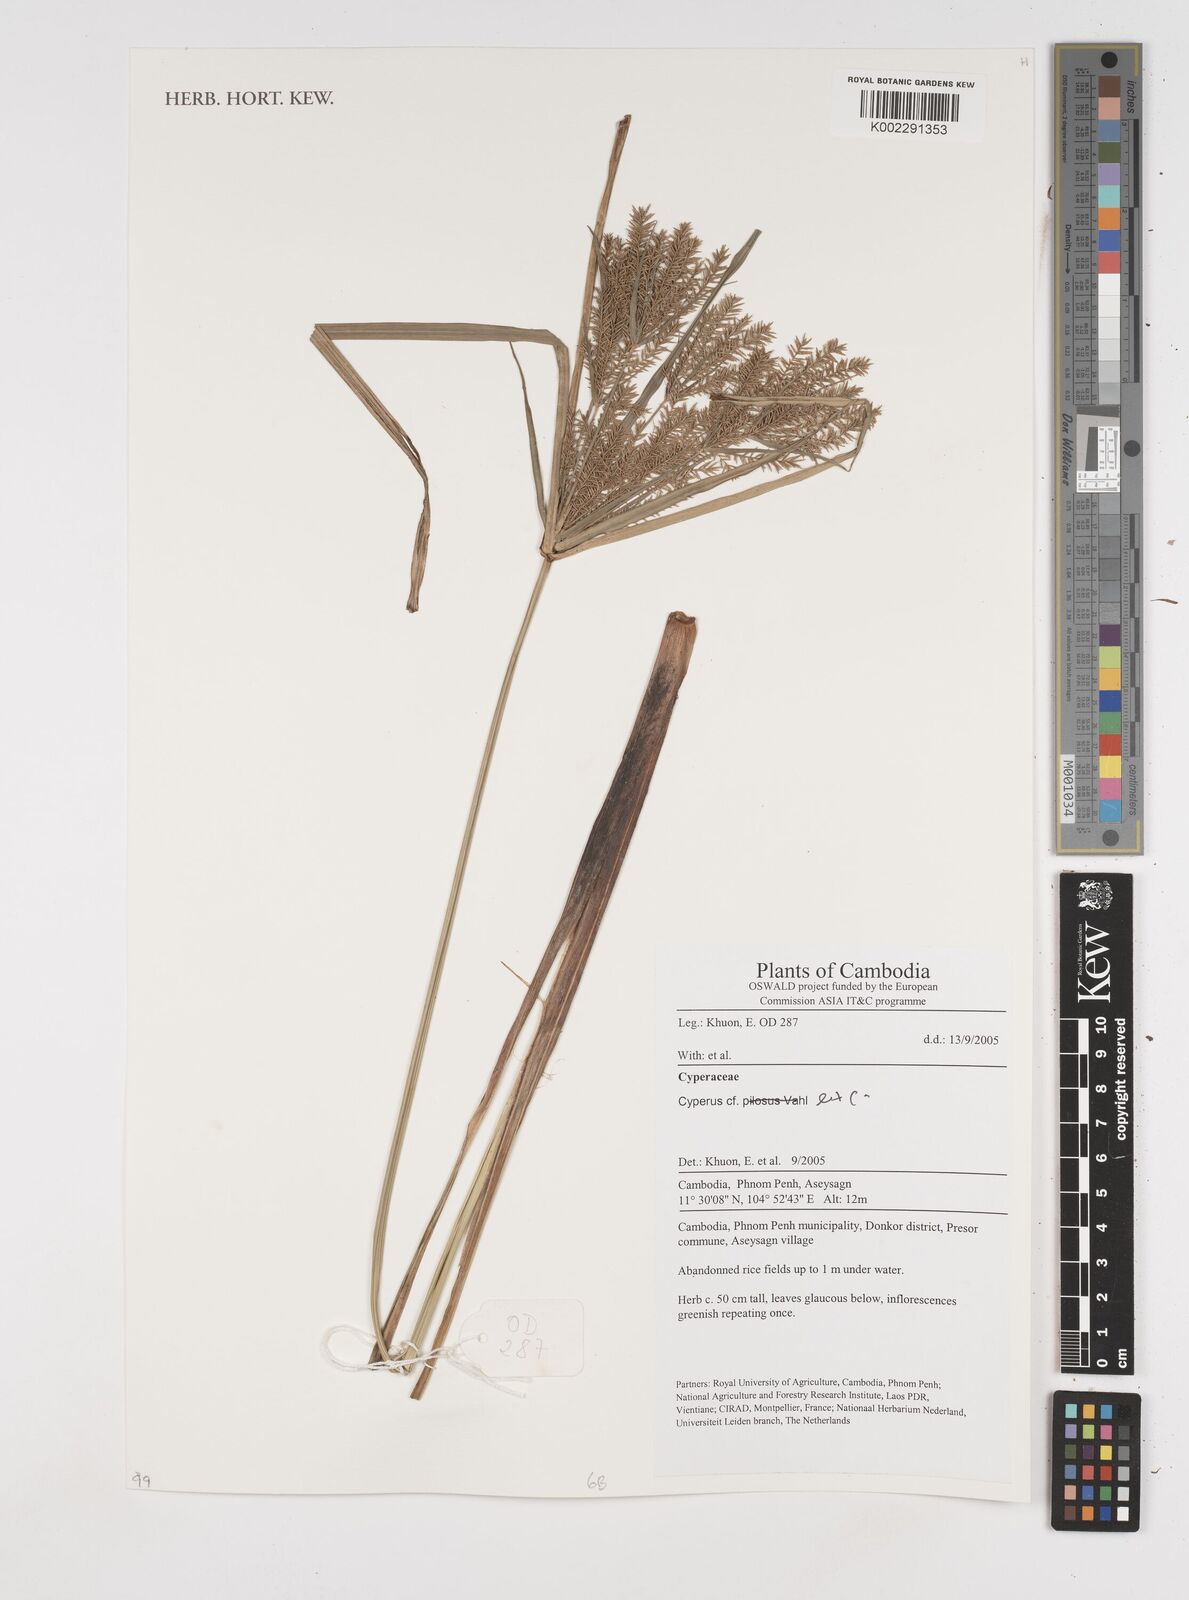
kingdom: Plantae
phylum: Tracheophyta
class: Liliopsida
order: Poales
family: Cyperaceae
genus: Cyperus
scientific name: Cyperus
